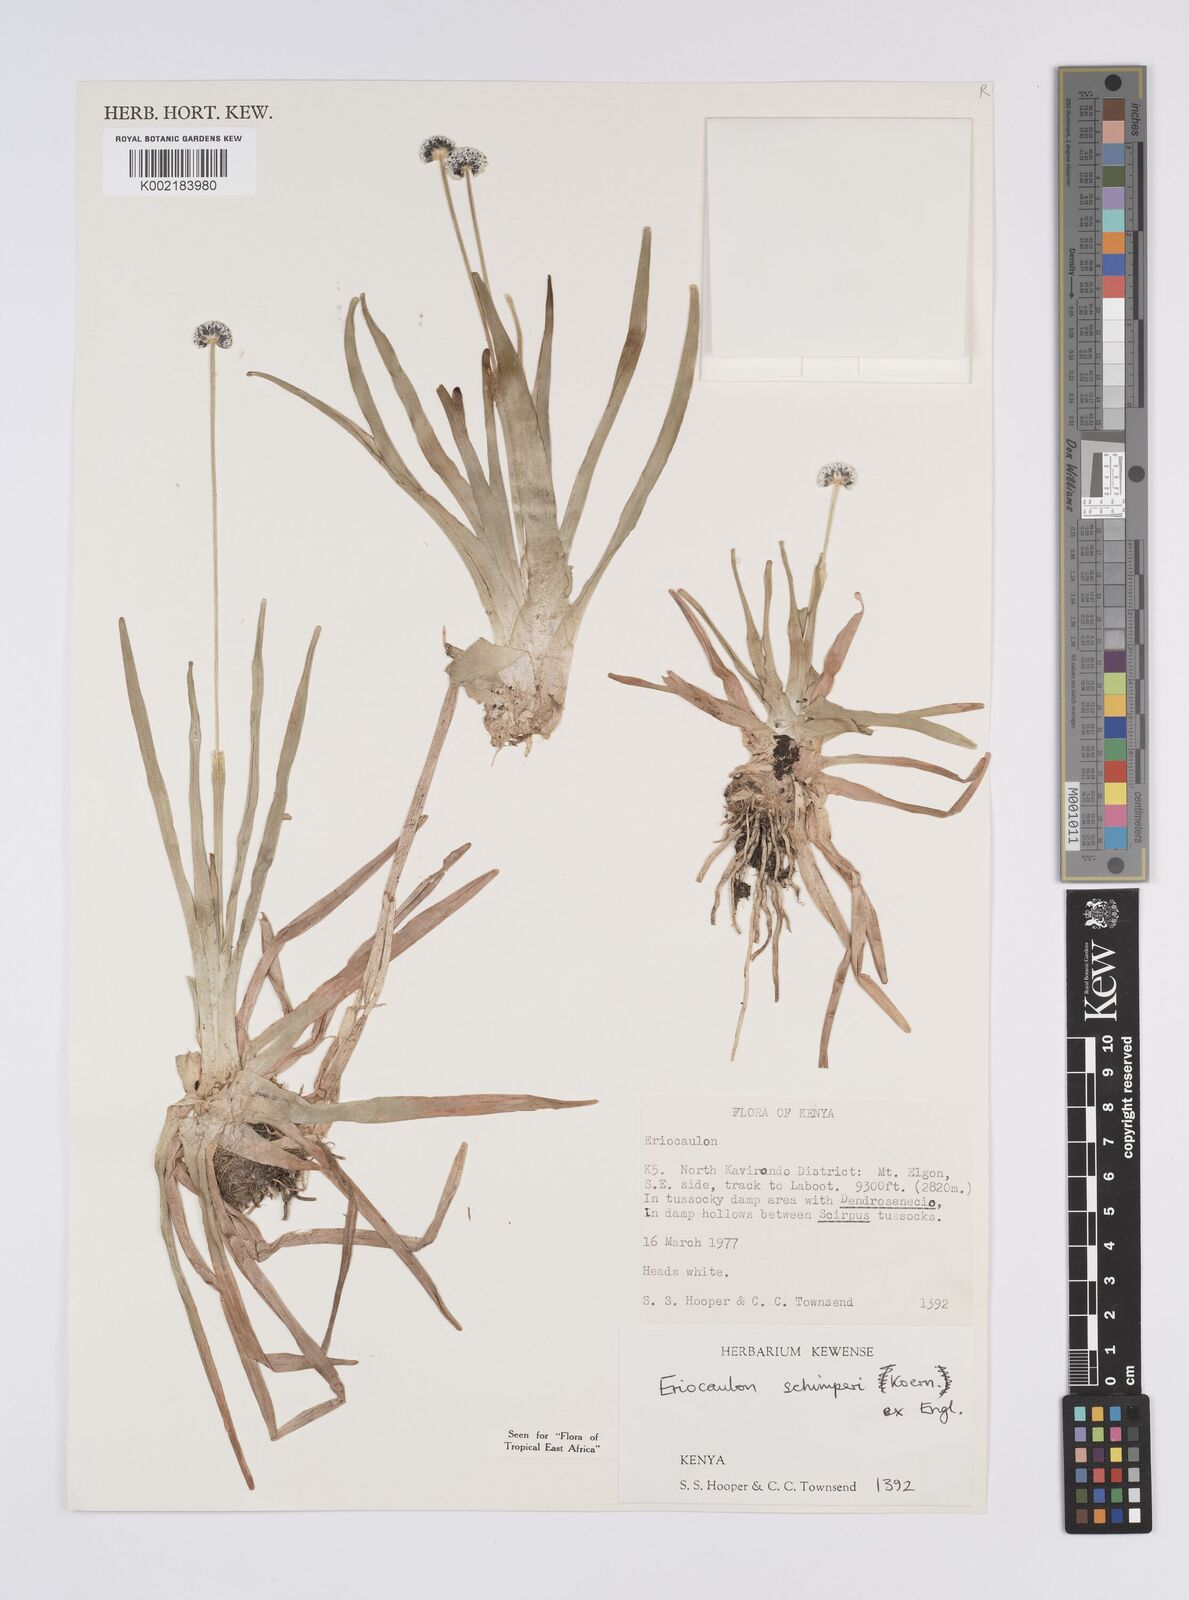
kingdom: Plantae
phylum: Tracheophyta
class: Liliopsida
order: Poales
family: Eriocaulaceae
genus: Eriocaulon
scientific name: Eriocaulon schimperi
